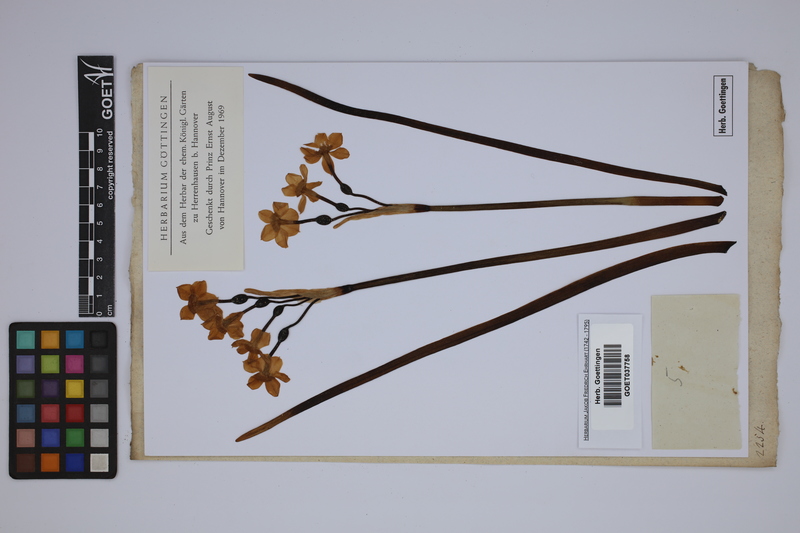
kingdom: Plantae
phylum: Tracheophyta
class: Liliopsida
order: Asparagales
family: Amaryllidaceae
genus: Narcissus
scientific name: Narcissus tazetta
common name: Bunch-flowered daffodil
